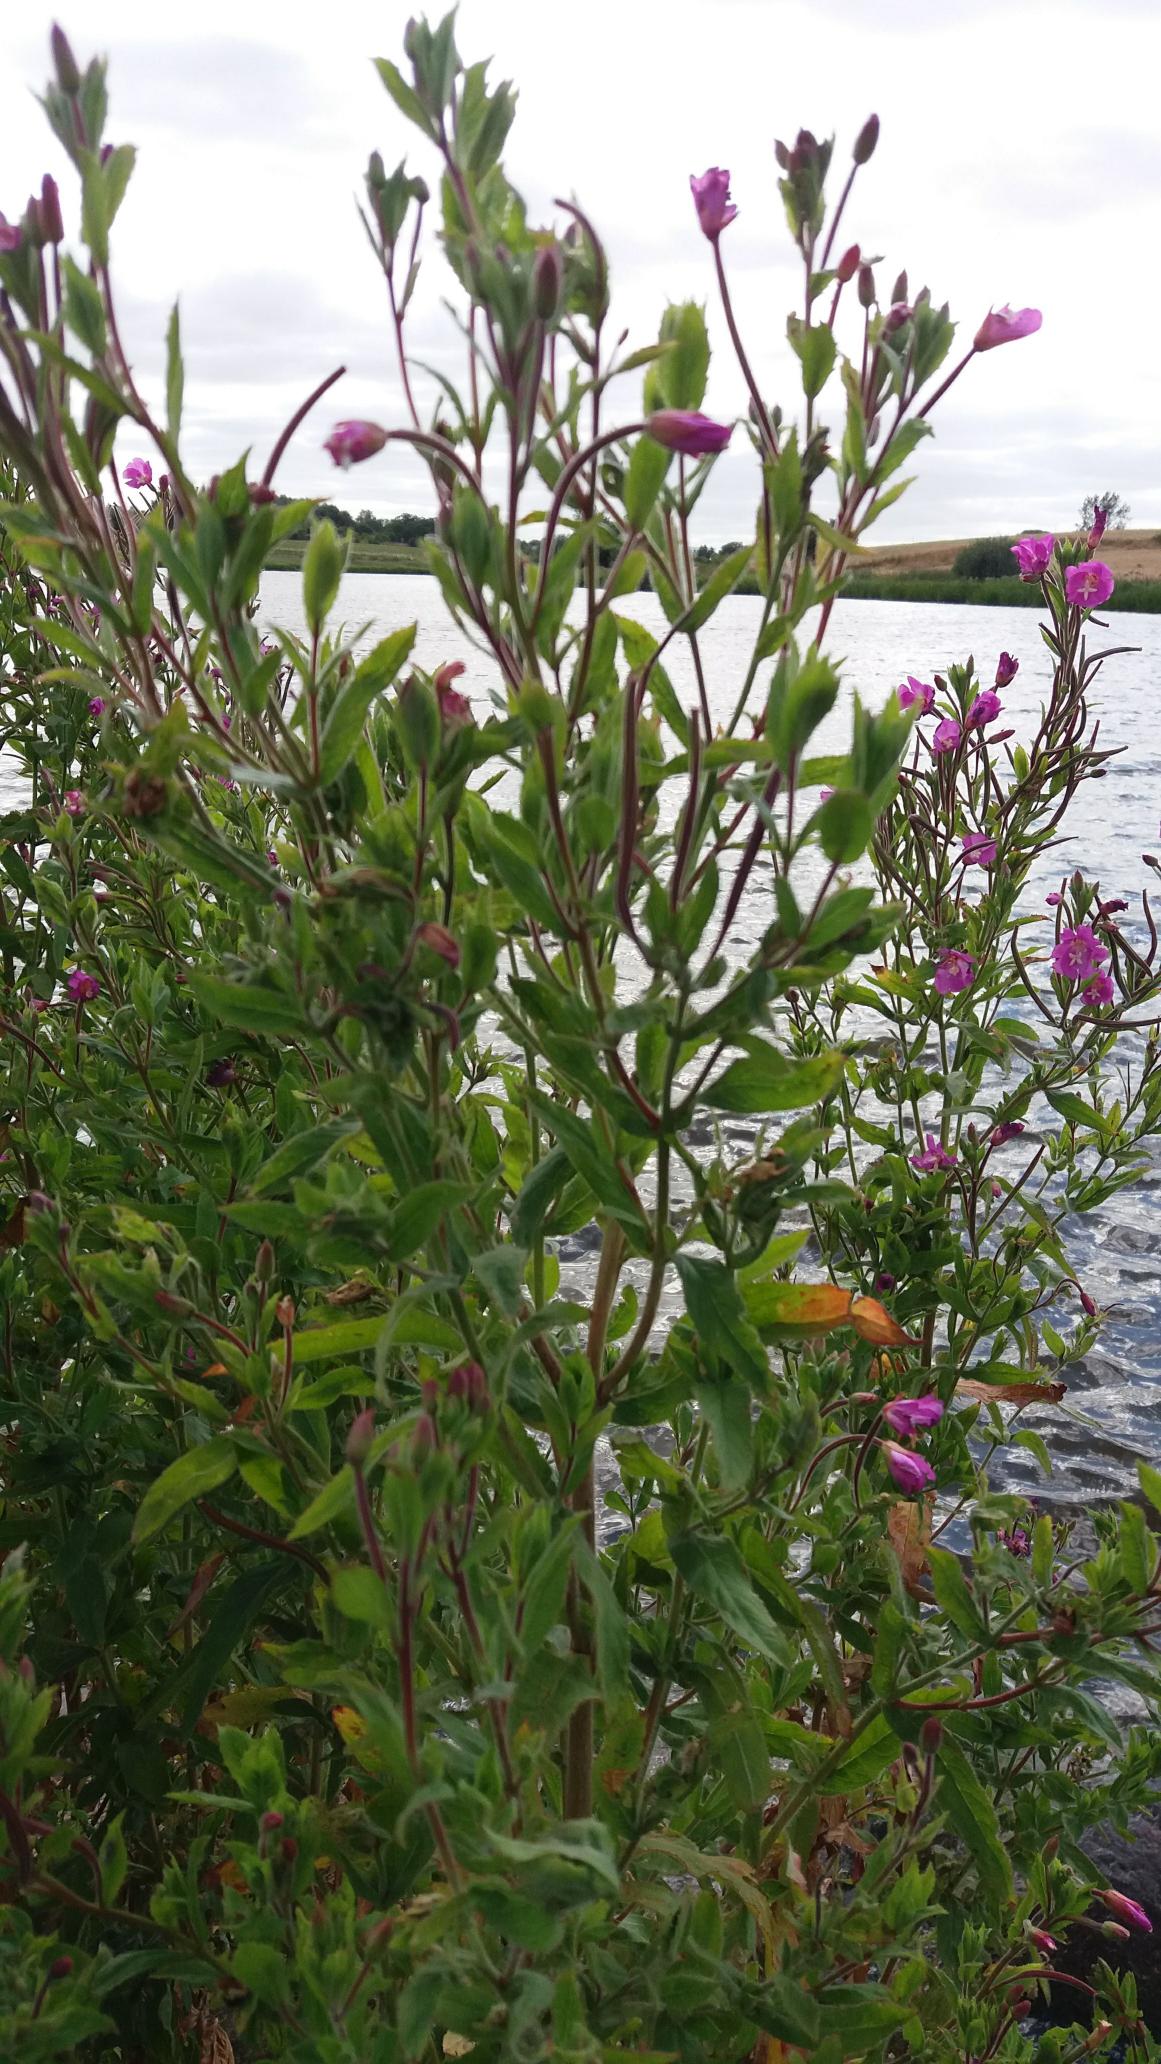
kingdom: Plantae
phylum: Tracheophyta
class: Magnoliopsida
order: Myrtales
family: Onagraceae
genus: Epilobium
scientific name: Epilobium hirsutum
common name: Lådden dueurt
